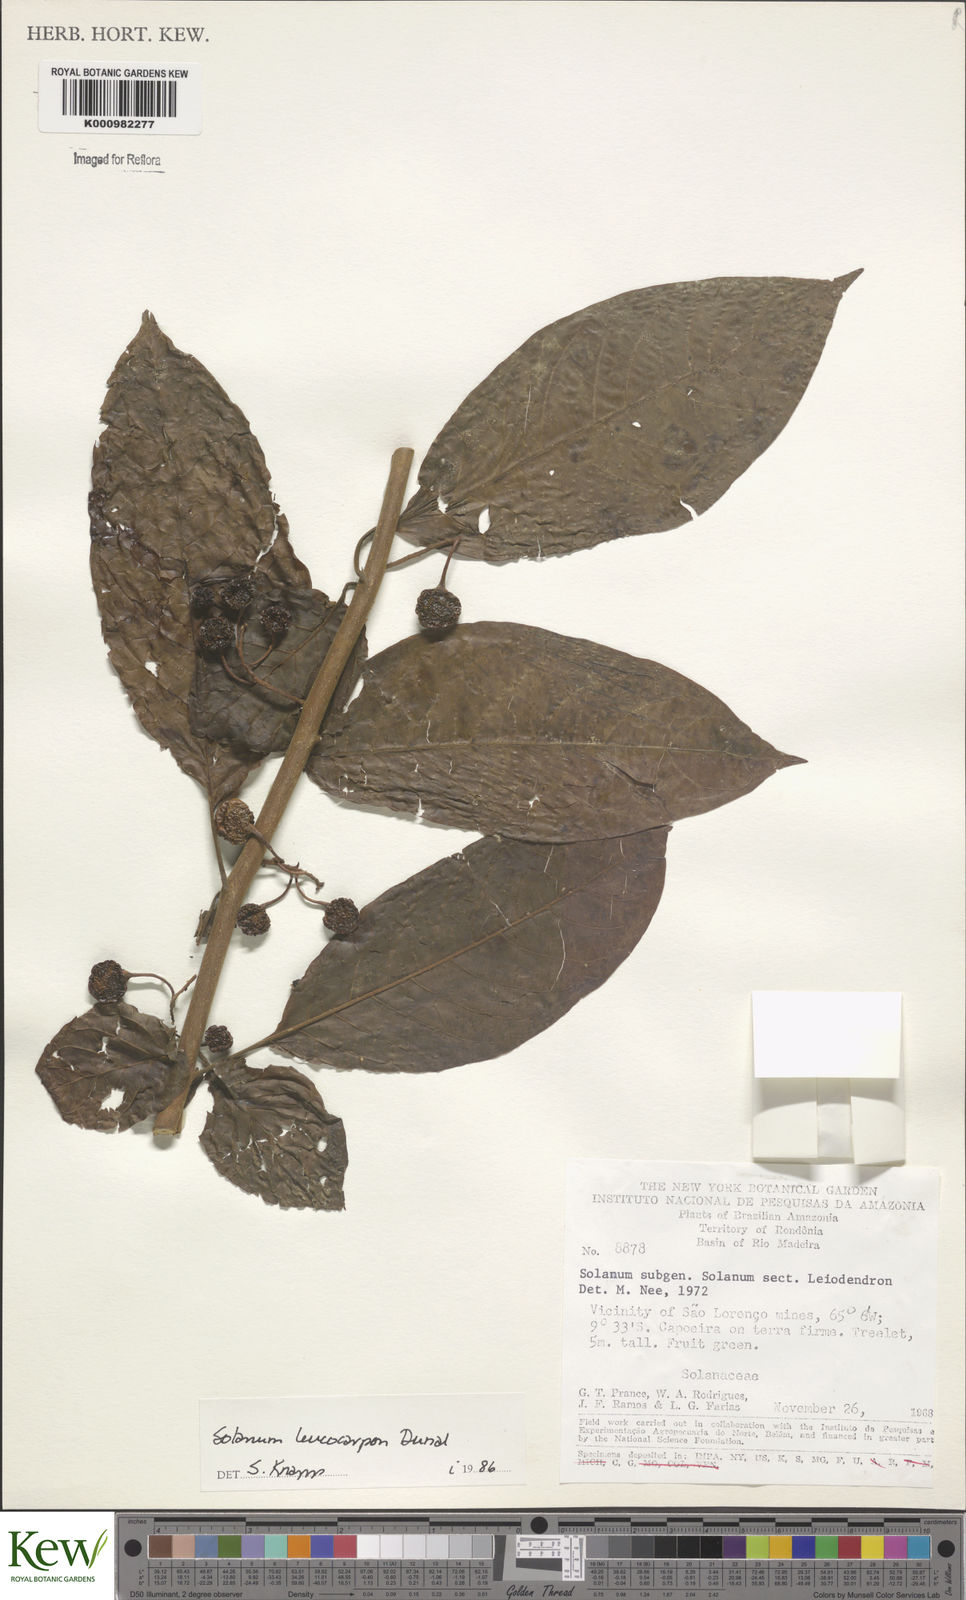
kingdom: Plantae
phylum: Tracheophyta
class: Magnoliopsida
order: Solanales
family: Solanaceae
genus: Solanum
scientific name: Solanum leucocarpon
